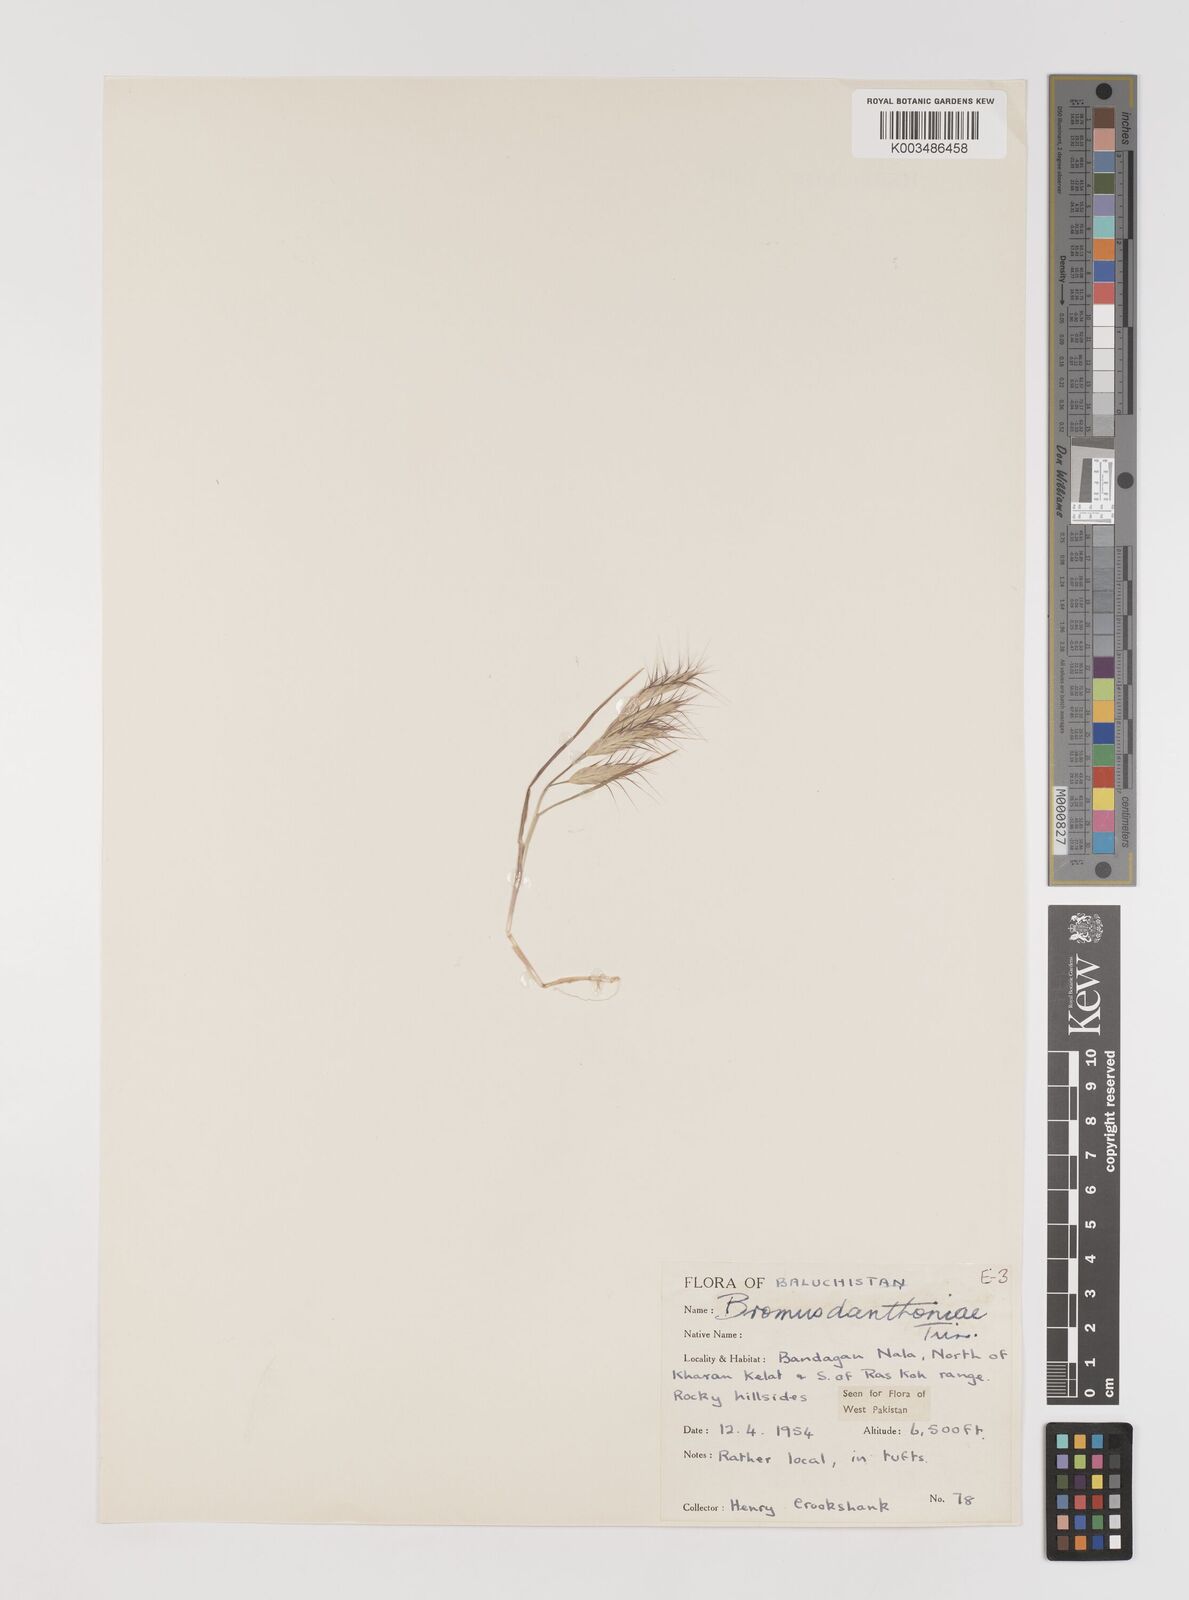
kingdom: Plantae
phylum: Tracheophyta
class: Liliopsida
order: Poales
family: Poaceae
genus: Bromus
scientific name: Bromus danthoniae
